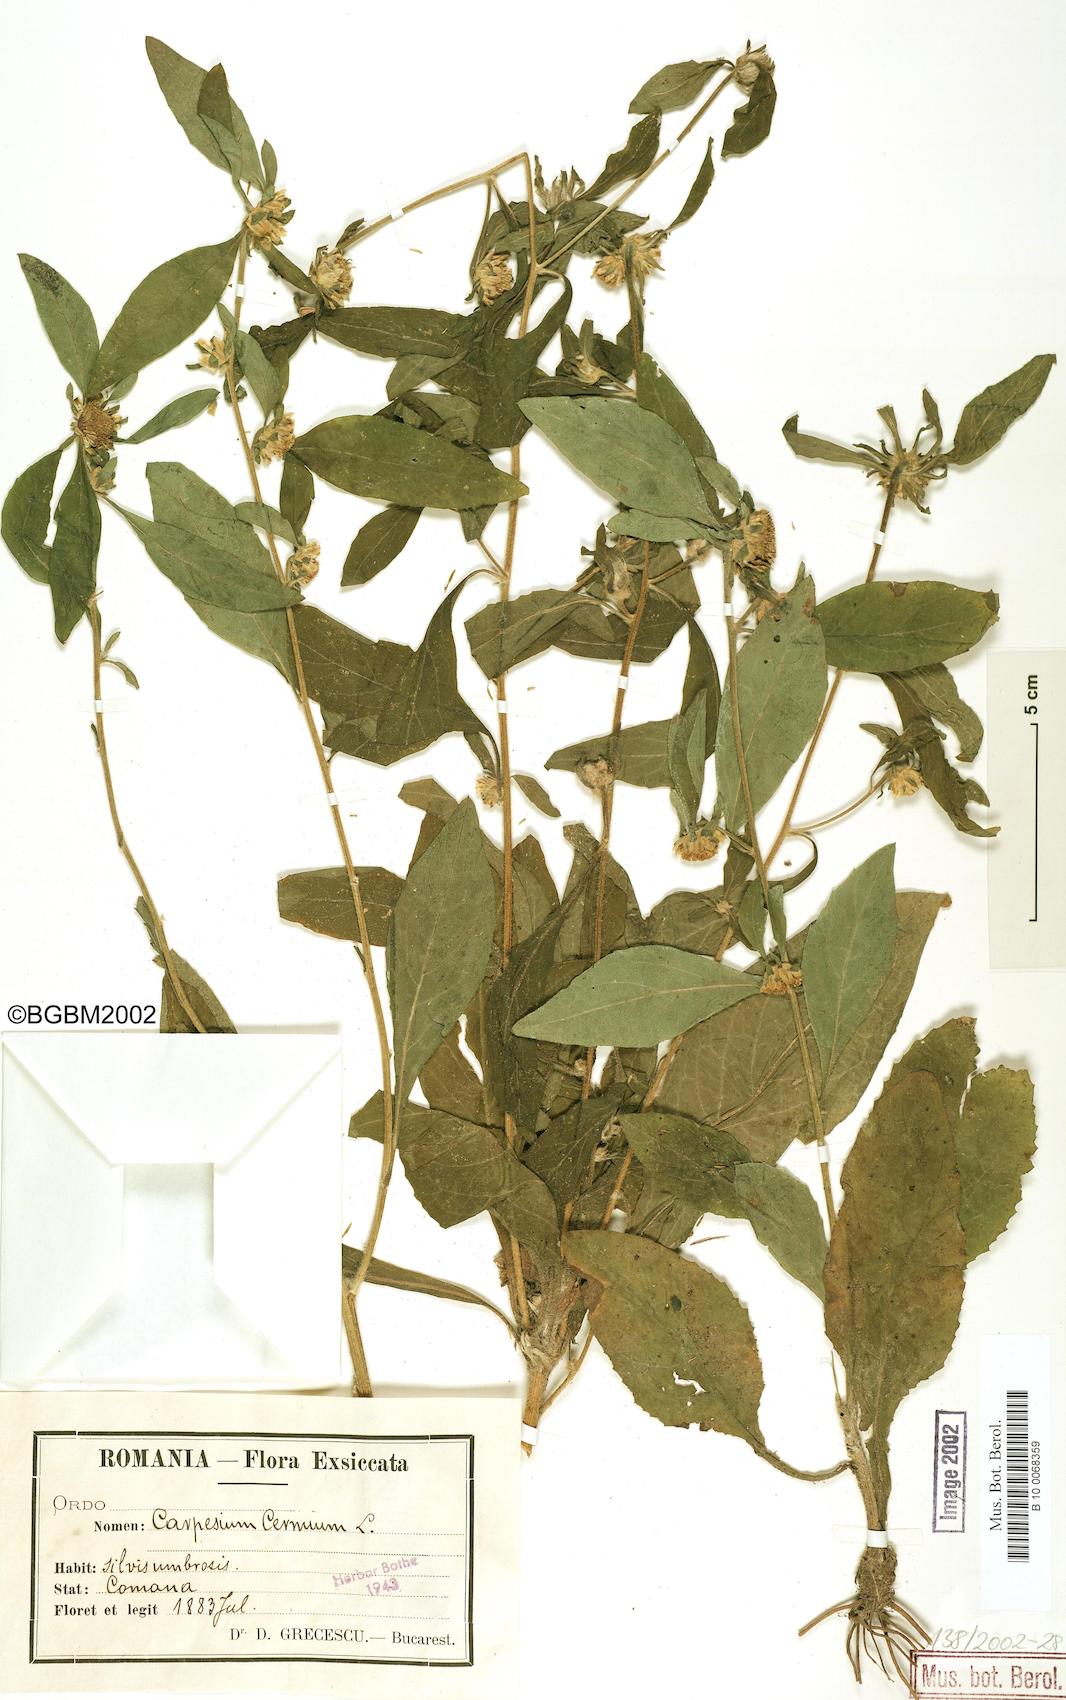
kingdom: Plantae
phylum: Tracheophyta
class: Magnoliopsida
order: Asterales
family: Asteraceae
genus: Carpesium
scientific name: Carpesium cernuum
